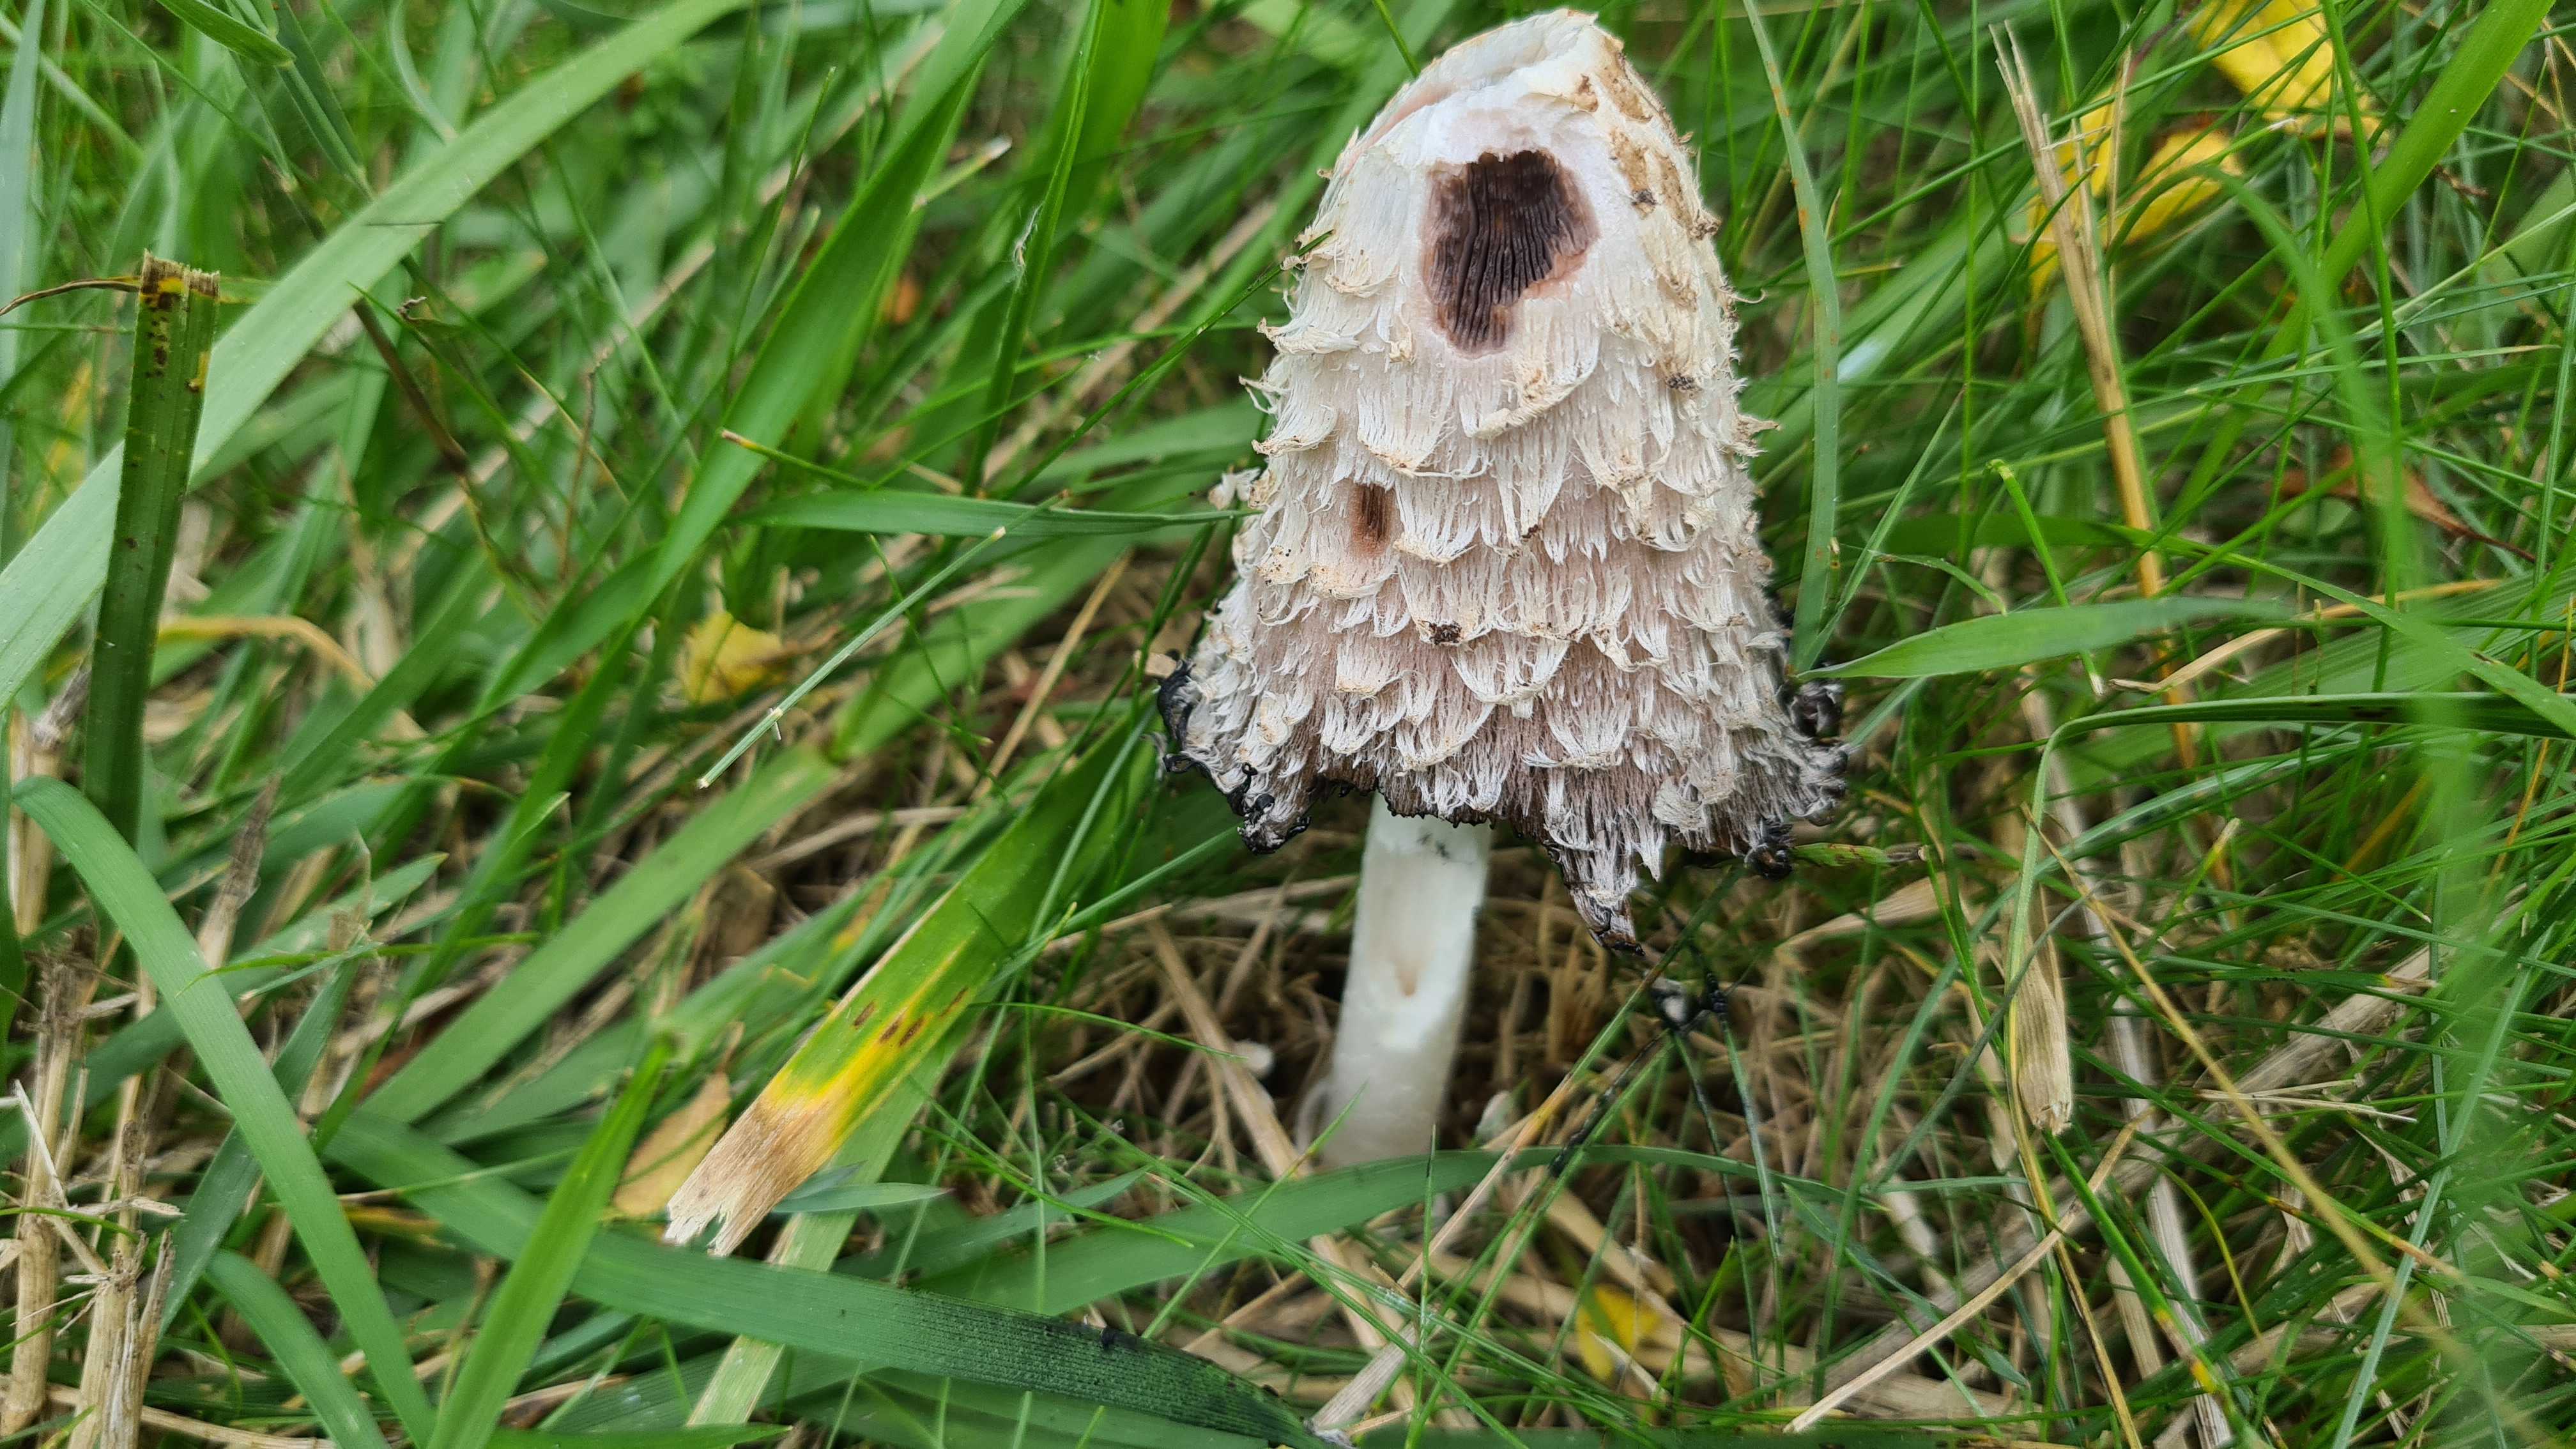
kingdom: Fungi
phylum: Basidiomycota
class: Agaricomycetes
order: Agaricales
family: Agaricaceae
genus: Coprinus
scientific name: Coprinus comatus
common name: stor parykhat
